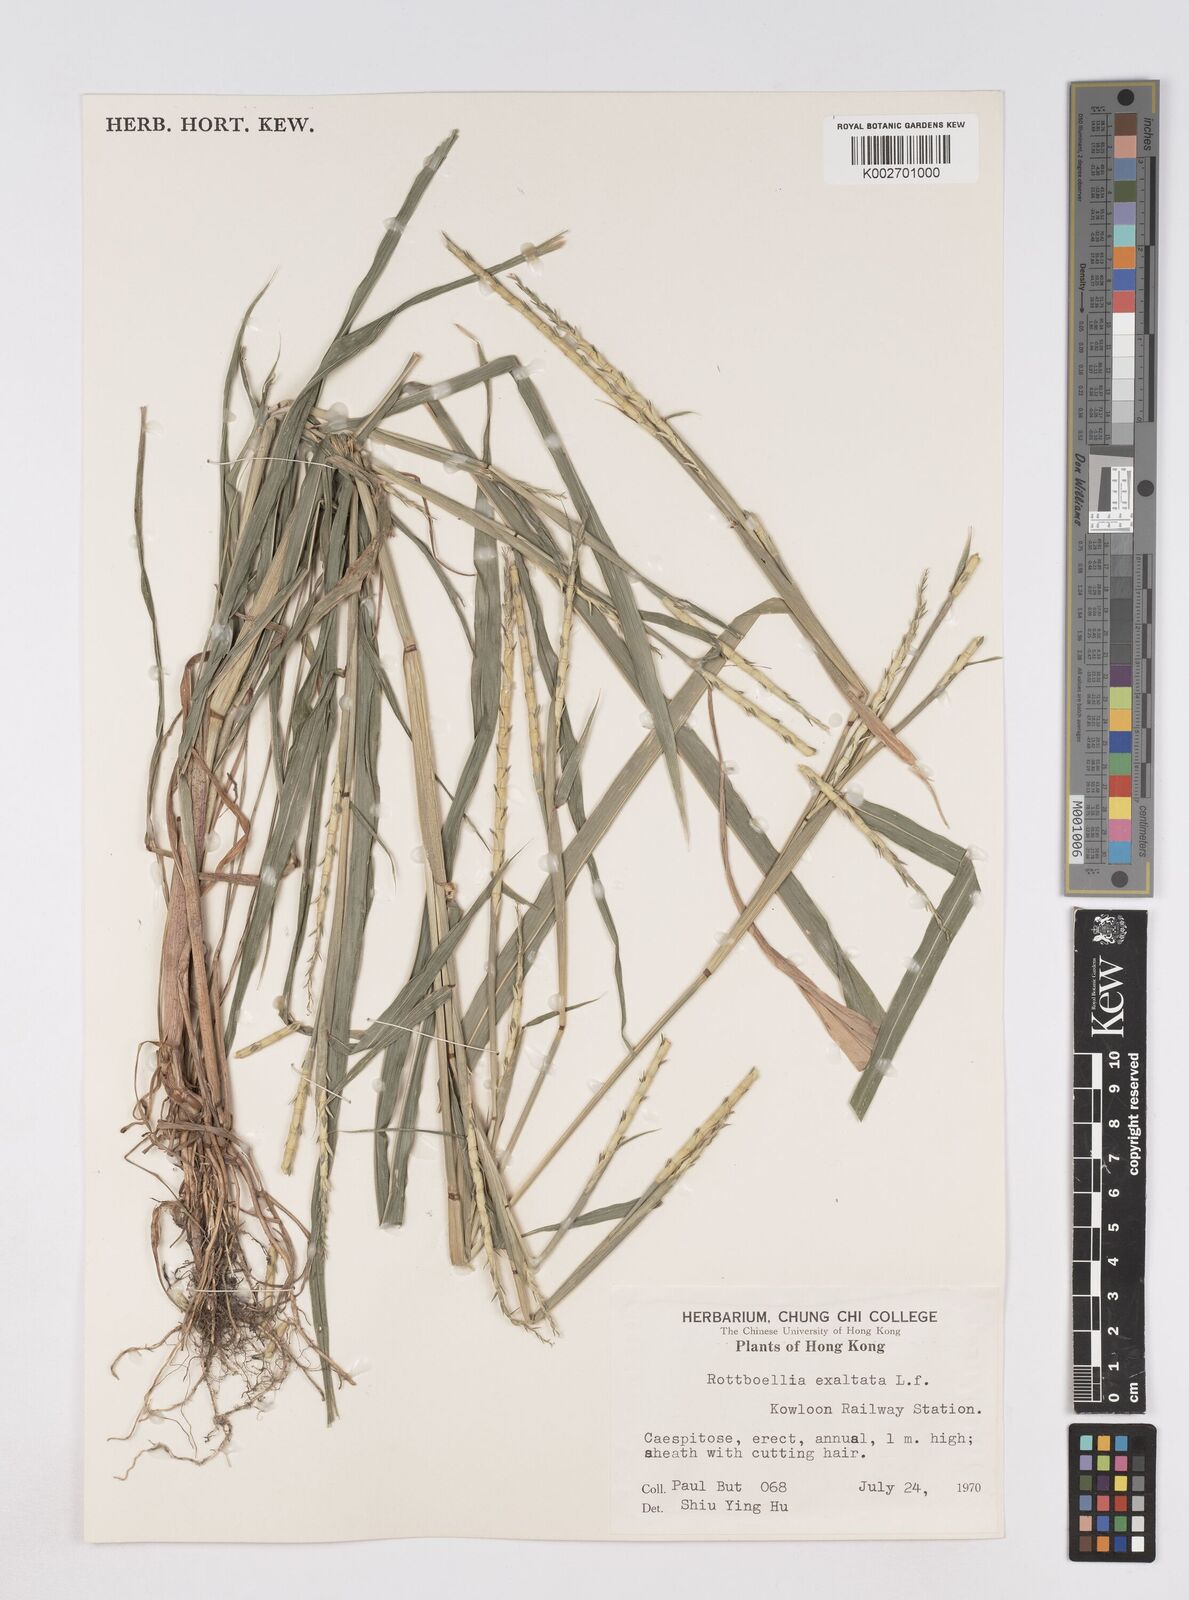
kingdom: Plantae
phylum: Tracheophyta
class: Liliopsida
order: Poales
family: Poaceae
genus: Rottboellia
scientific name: Rottboellia cochinchinensis
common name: Itchgrass
